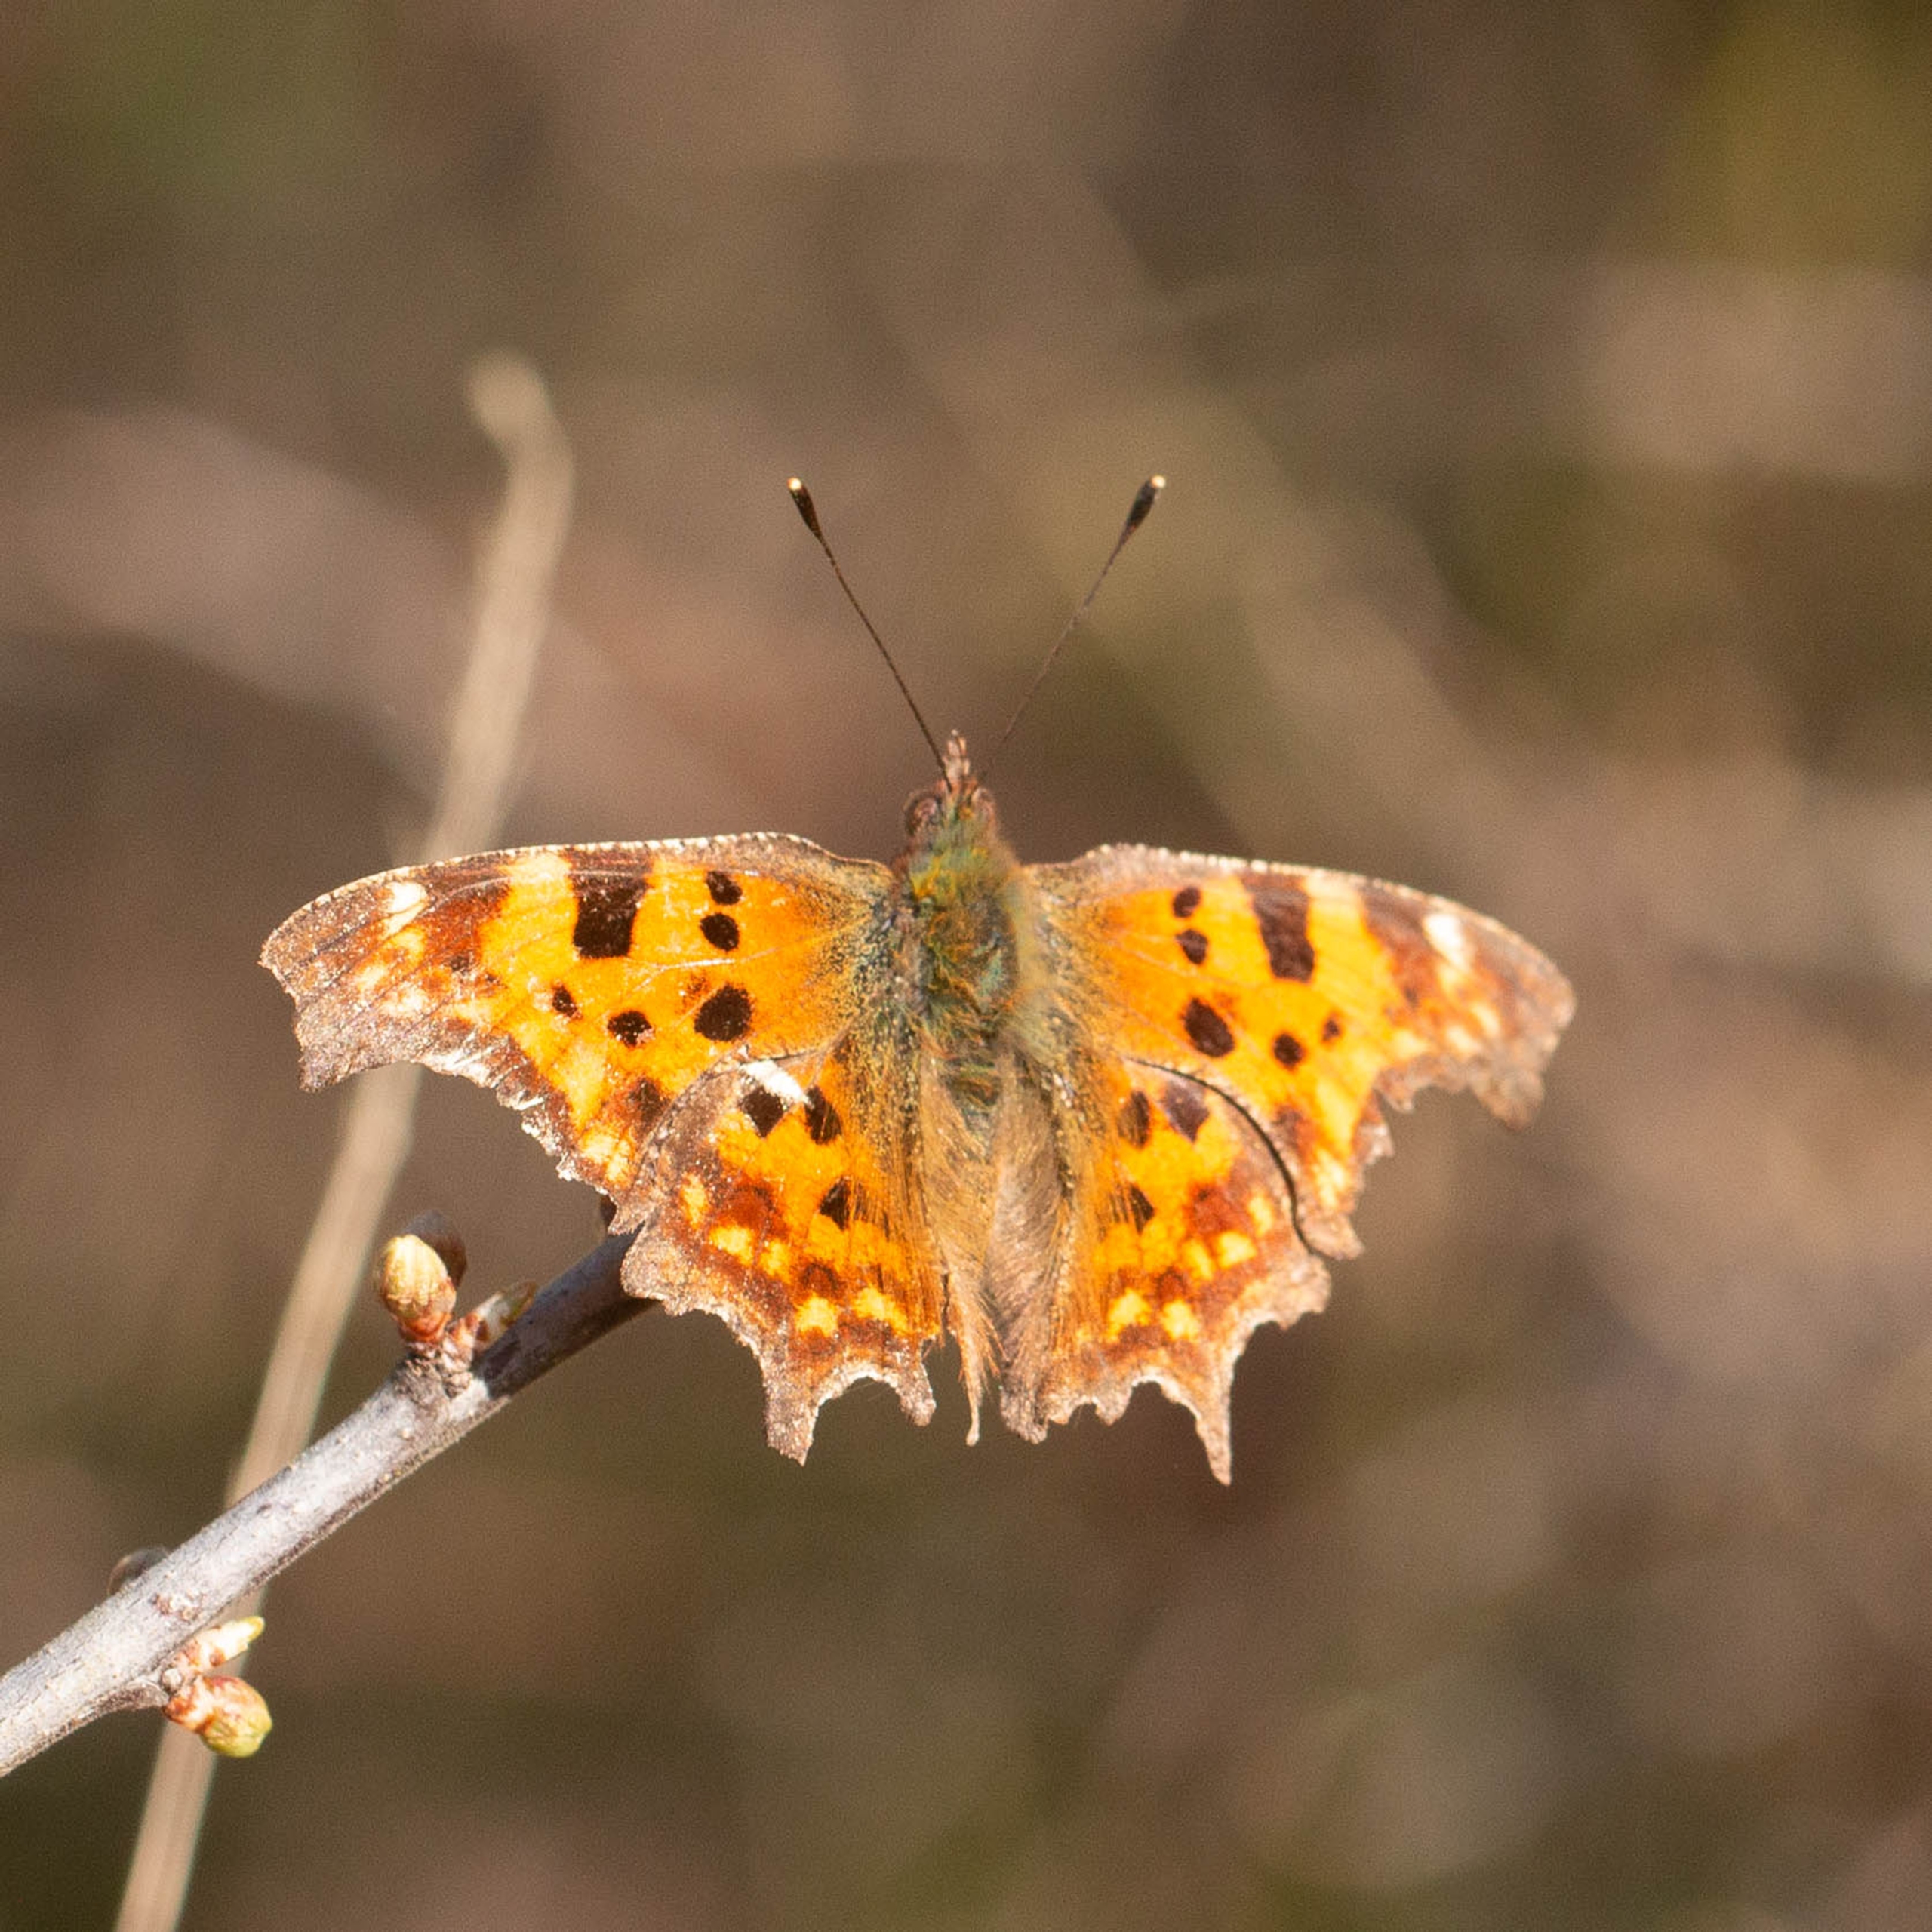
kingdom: Animalia
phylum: Arthropoda
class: Insecta
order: Lepidoptera
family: Nymphalidae
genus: Polygonia
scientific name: Polygonia c-album
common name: Det hvide C
